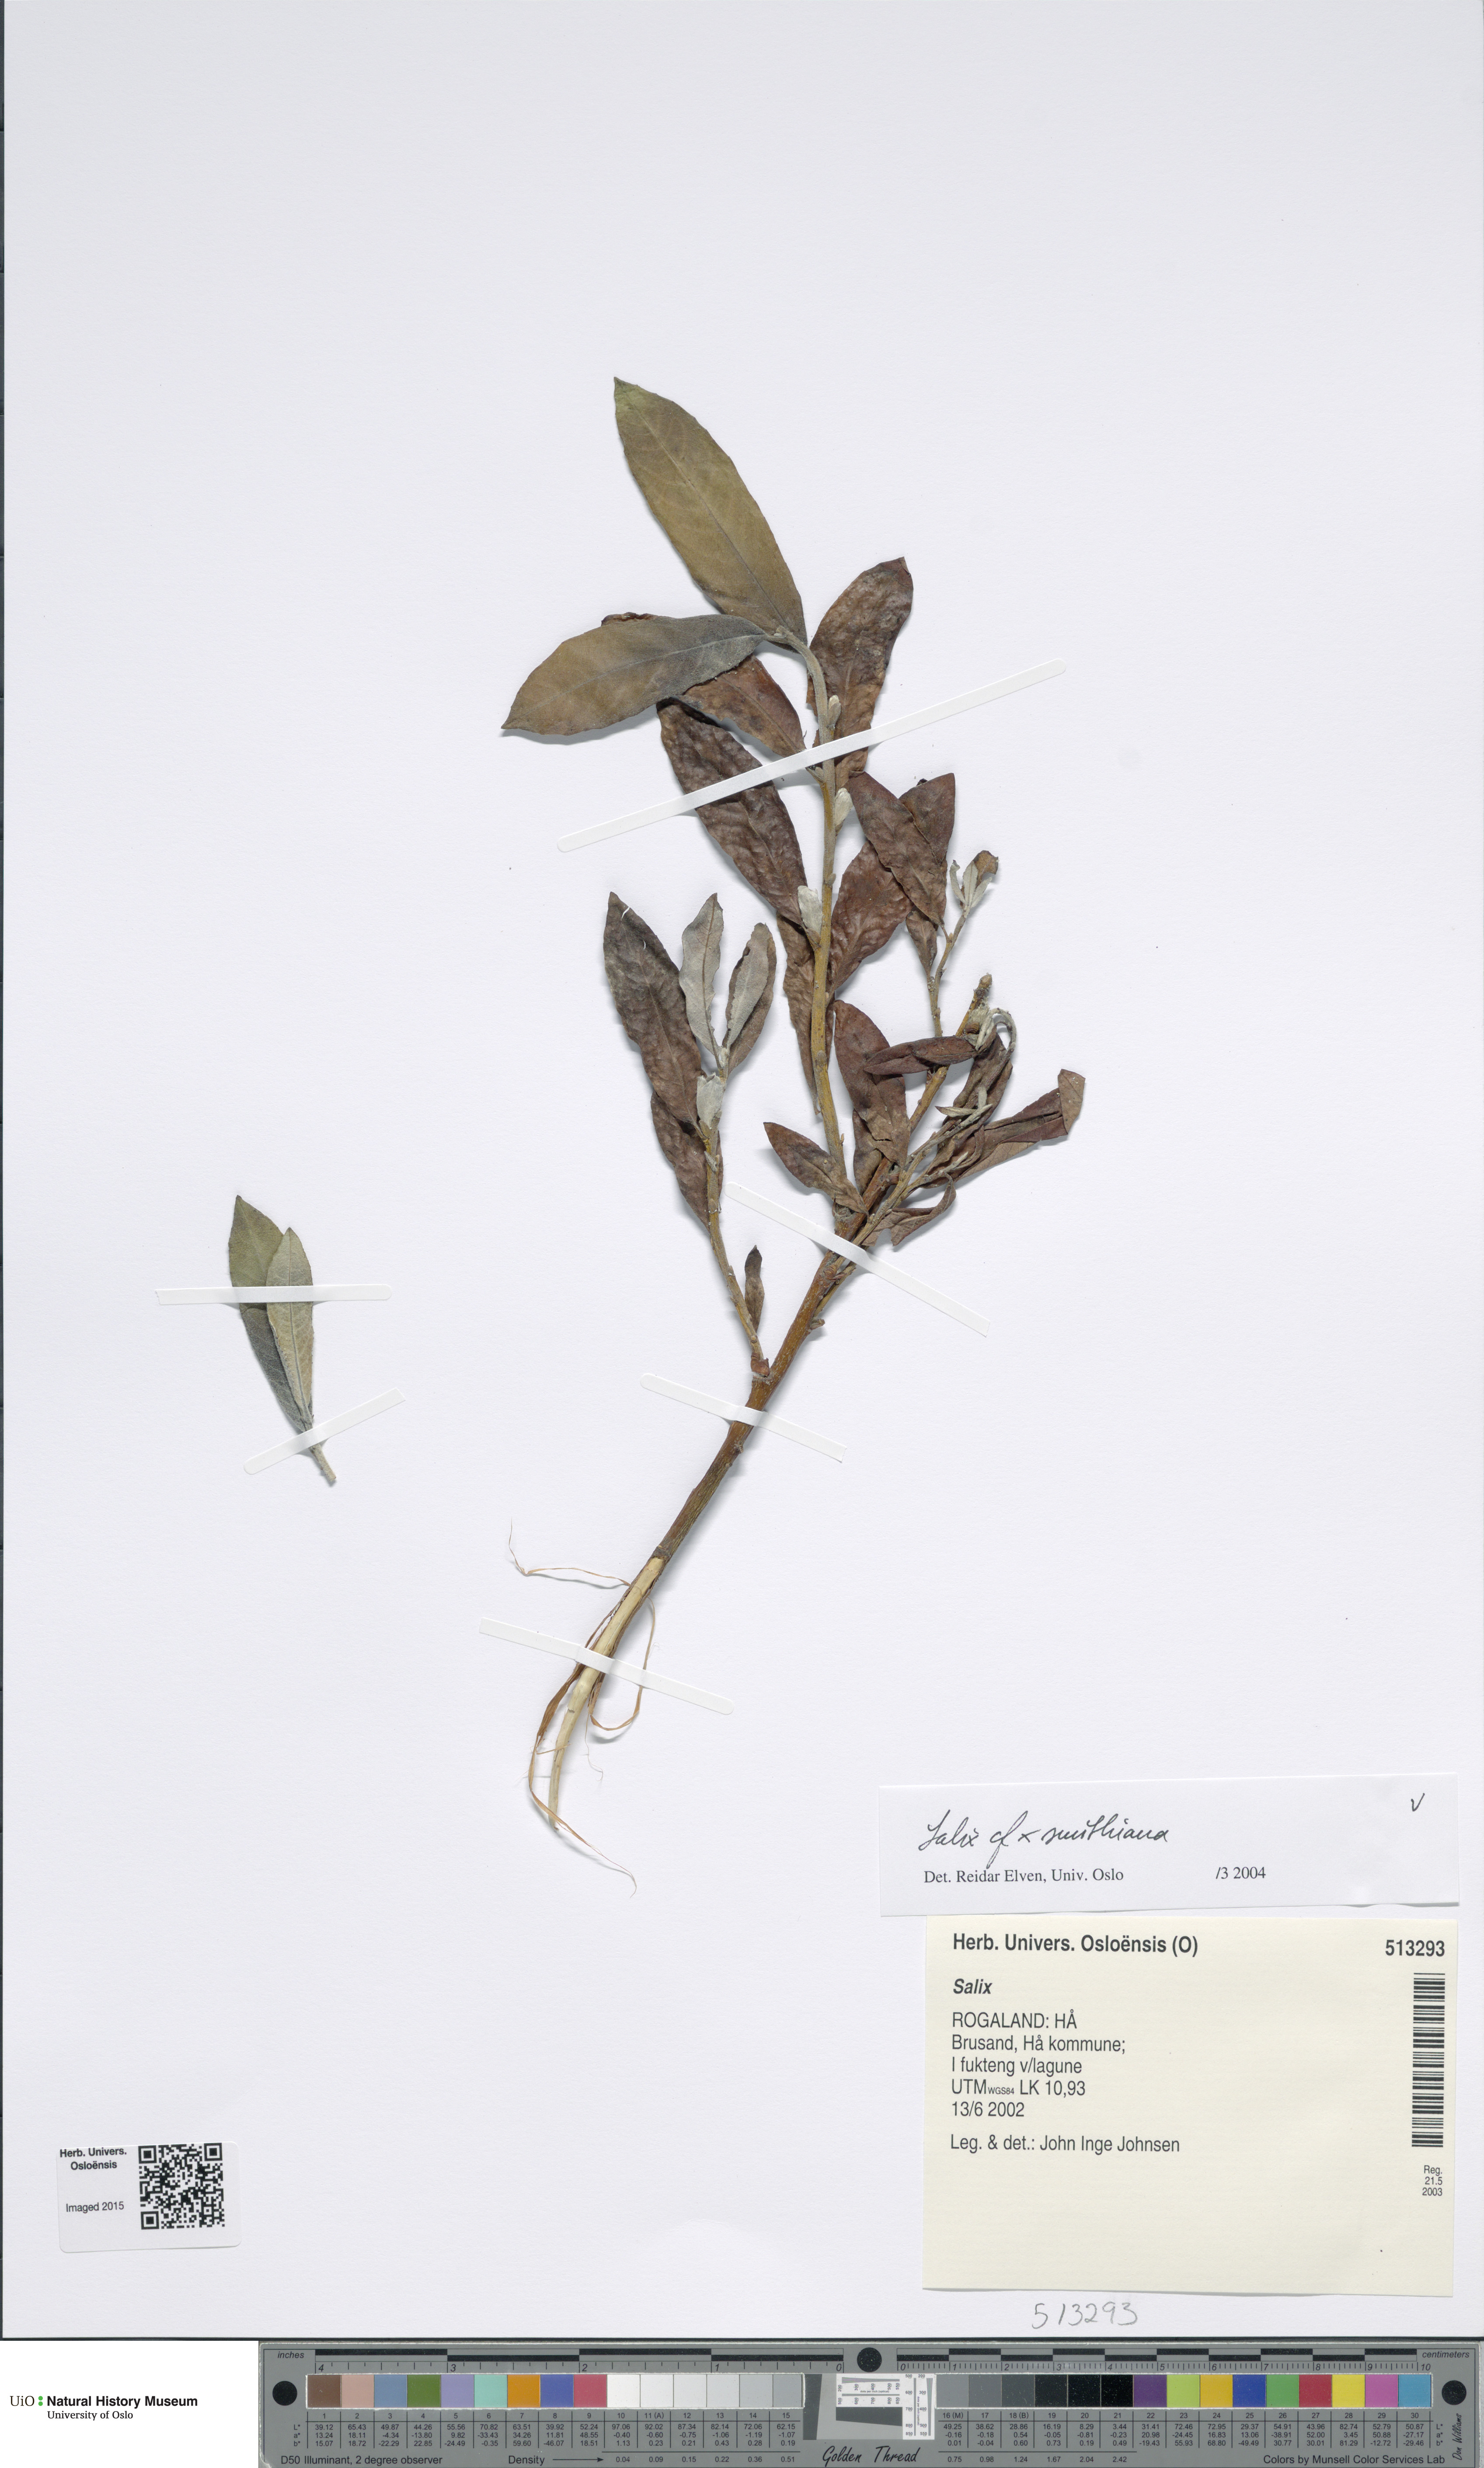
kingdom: Plantae
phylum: Tracheophyta
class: Magnoliopsida
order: Malpighiales
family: Salicaceae
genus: Salix
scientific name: Salix smithiana
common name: Silky-leaved osier
